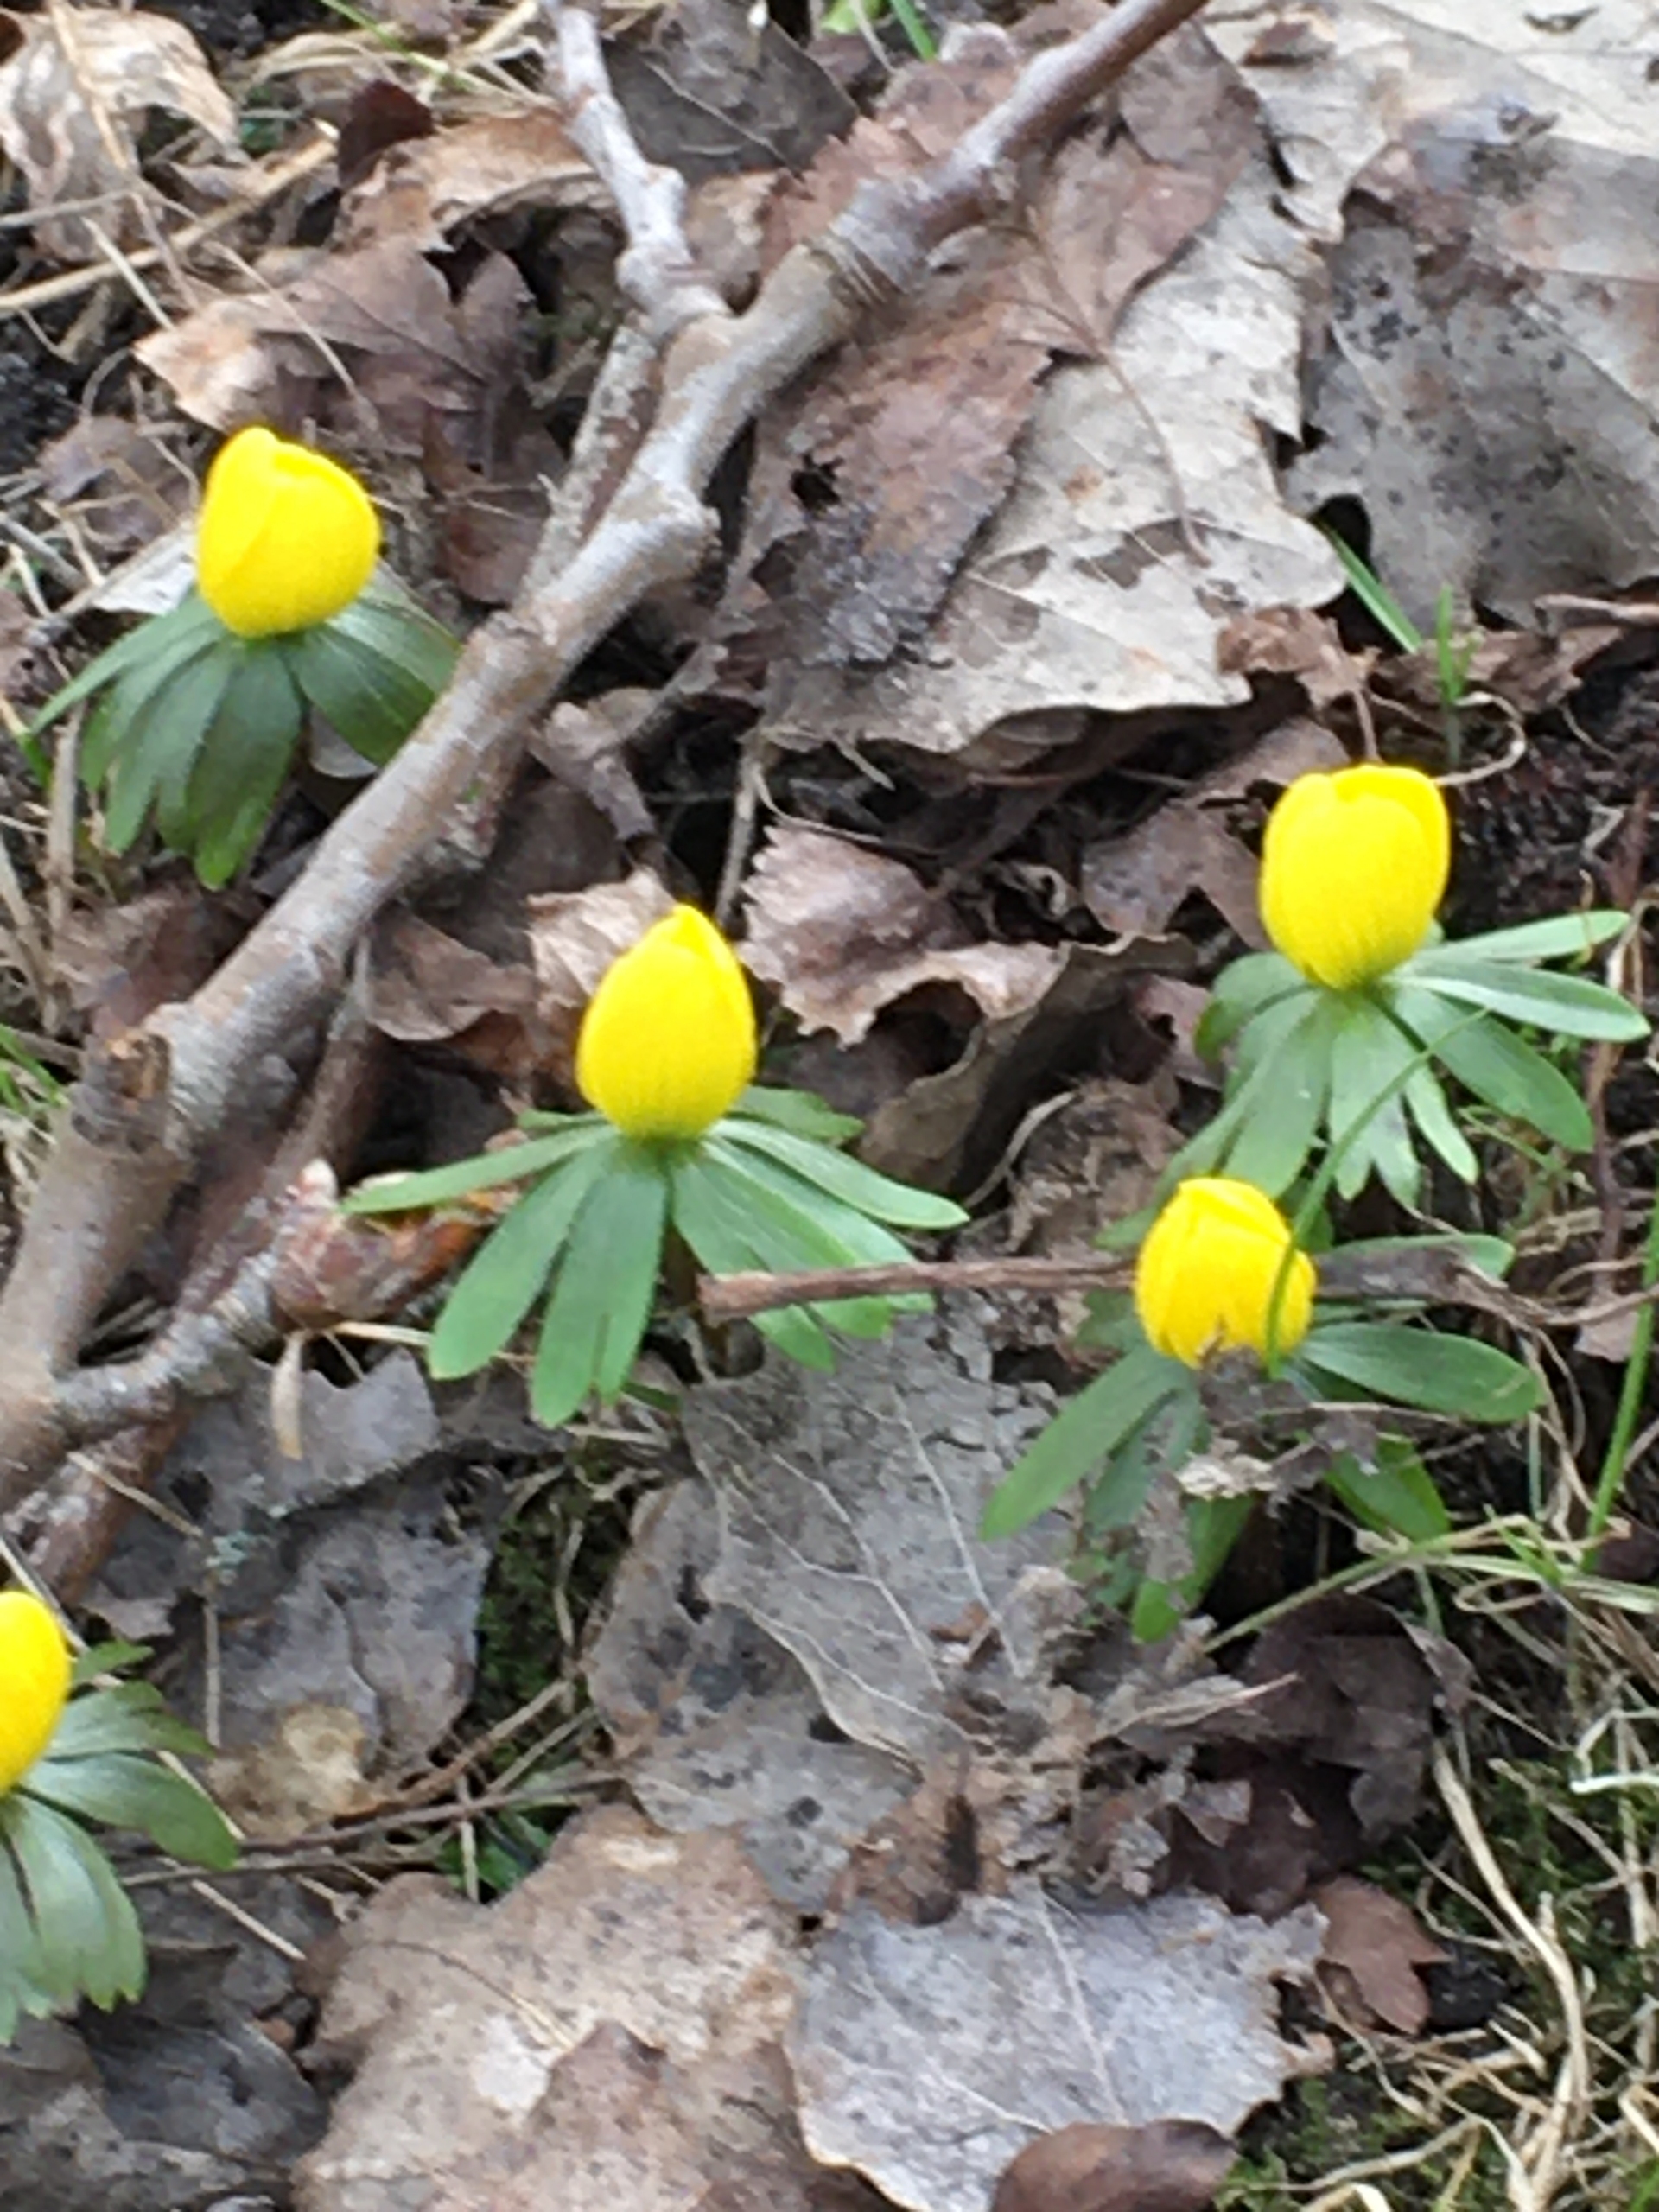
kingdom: Plantae
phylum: Tracheophyta
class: Magnoliopsida
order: Ranunculales
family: Ranunculaceae
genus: Eranthis
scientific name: Eranthis hyemalis
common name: Erantis
